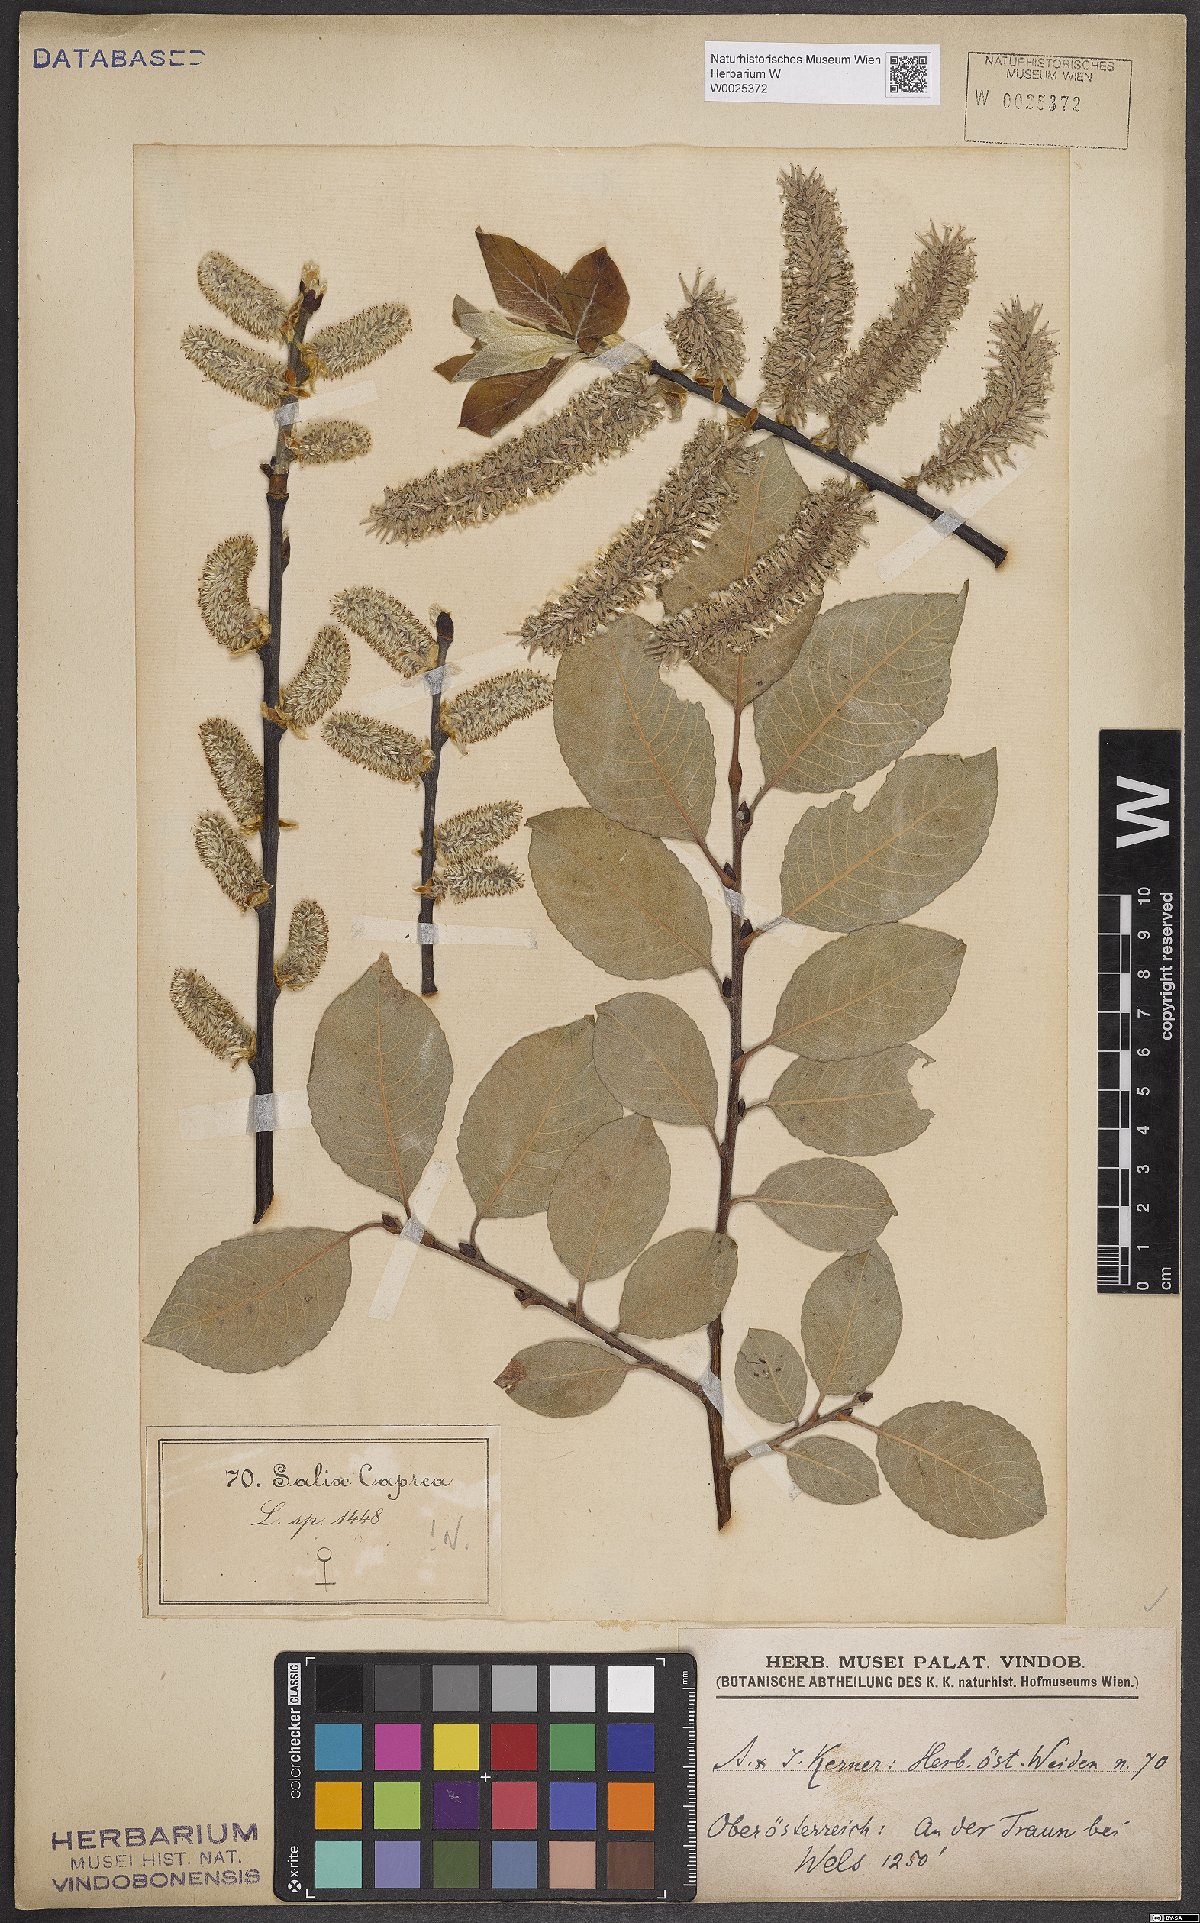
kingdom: Plantae
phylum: Tracheophyta
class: Magnoliopsida
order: Malpighiales
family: Salicaceae
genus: Salix
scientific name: Salix caprea
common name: Goat willow
